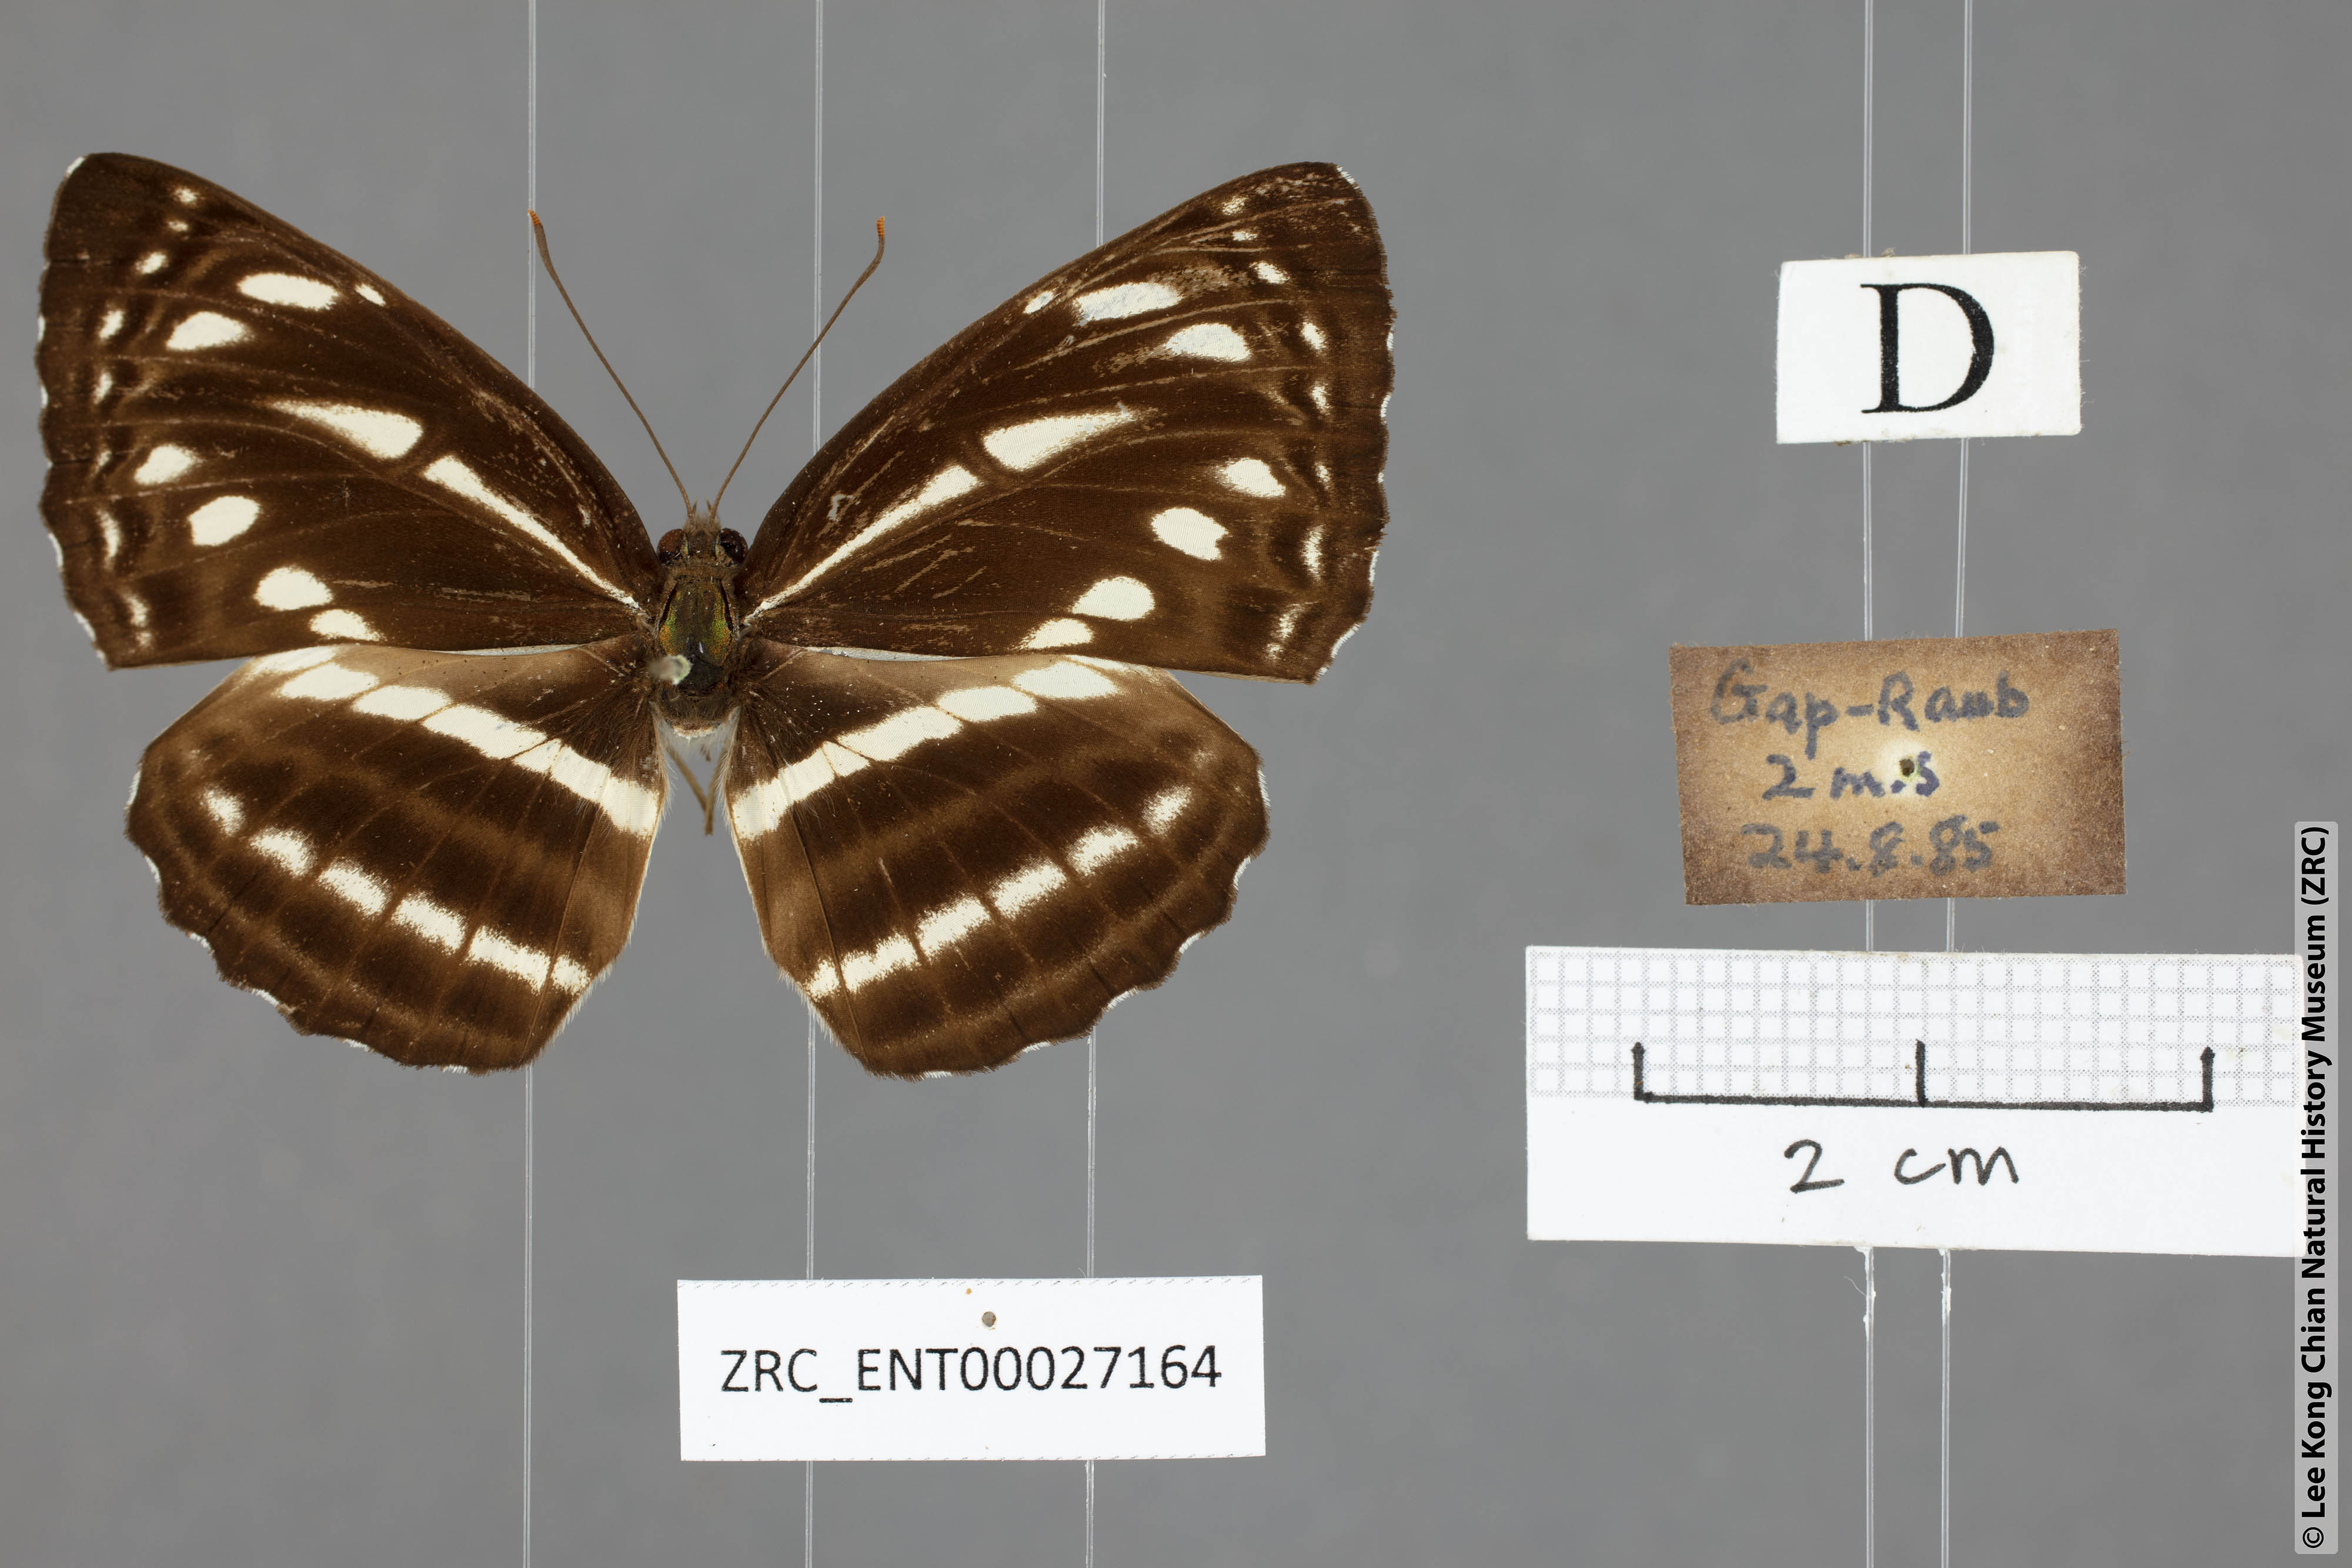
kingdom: Animalia
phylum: Arthropoda
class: Insecta
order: Lepidoptera
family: Nymphalidae
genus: Neptis
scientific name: Neptis nata
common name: Sullied brown sailer
